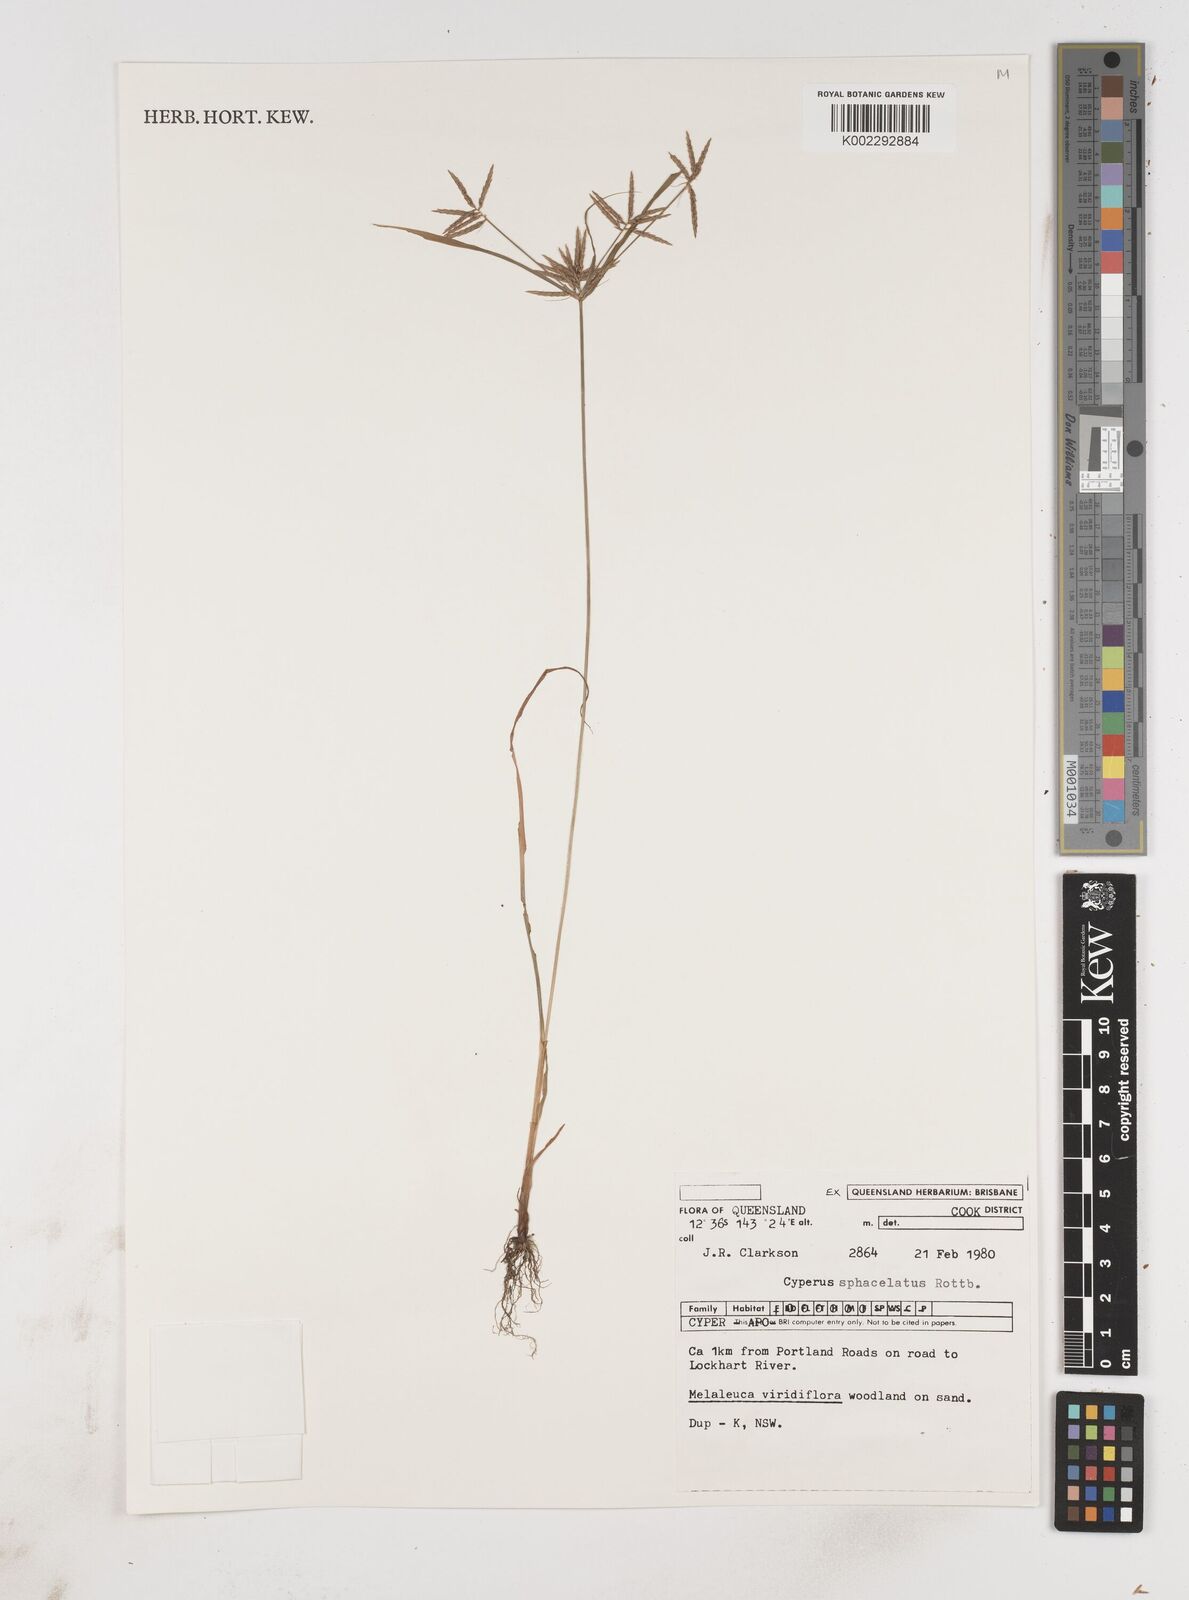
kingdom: Plantae
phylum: Tracheophyta
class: Liliopsida
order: Poales
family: Cyperaceae
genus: Cyperus
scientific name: Cyperus sphacelatus
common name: Roadside flatsedge
